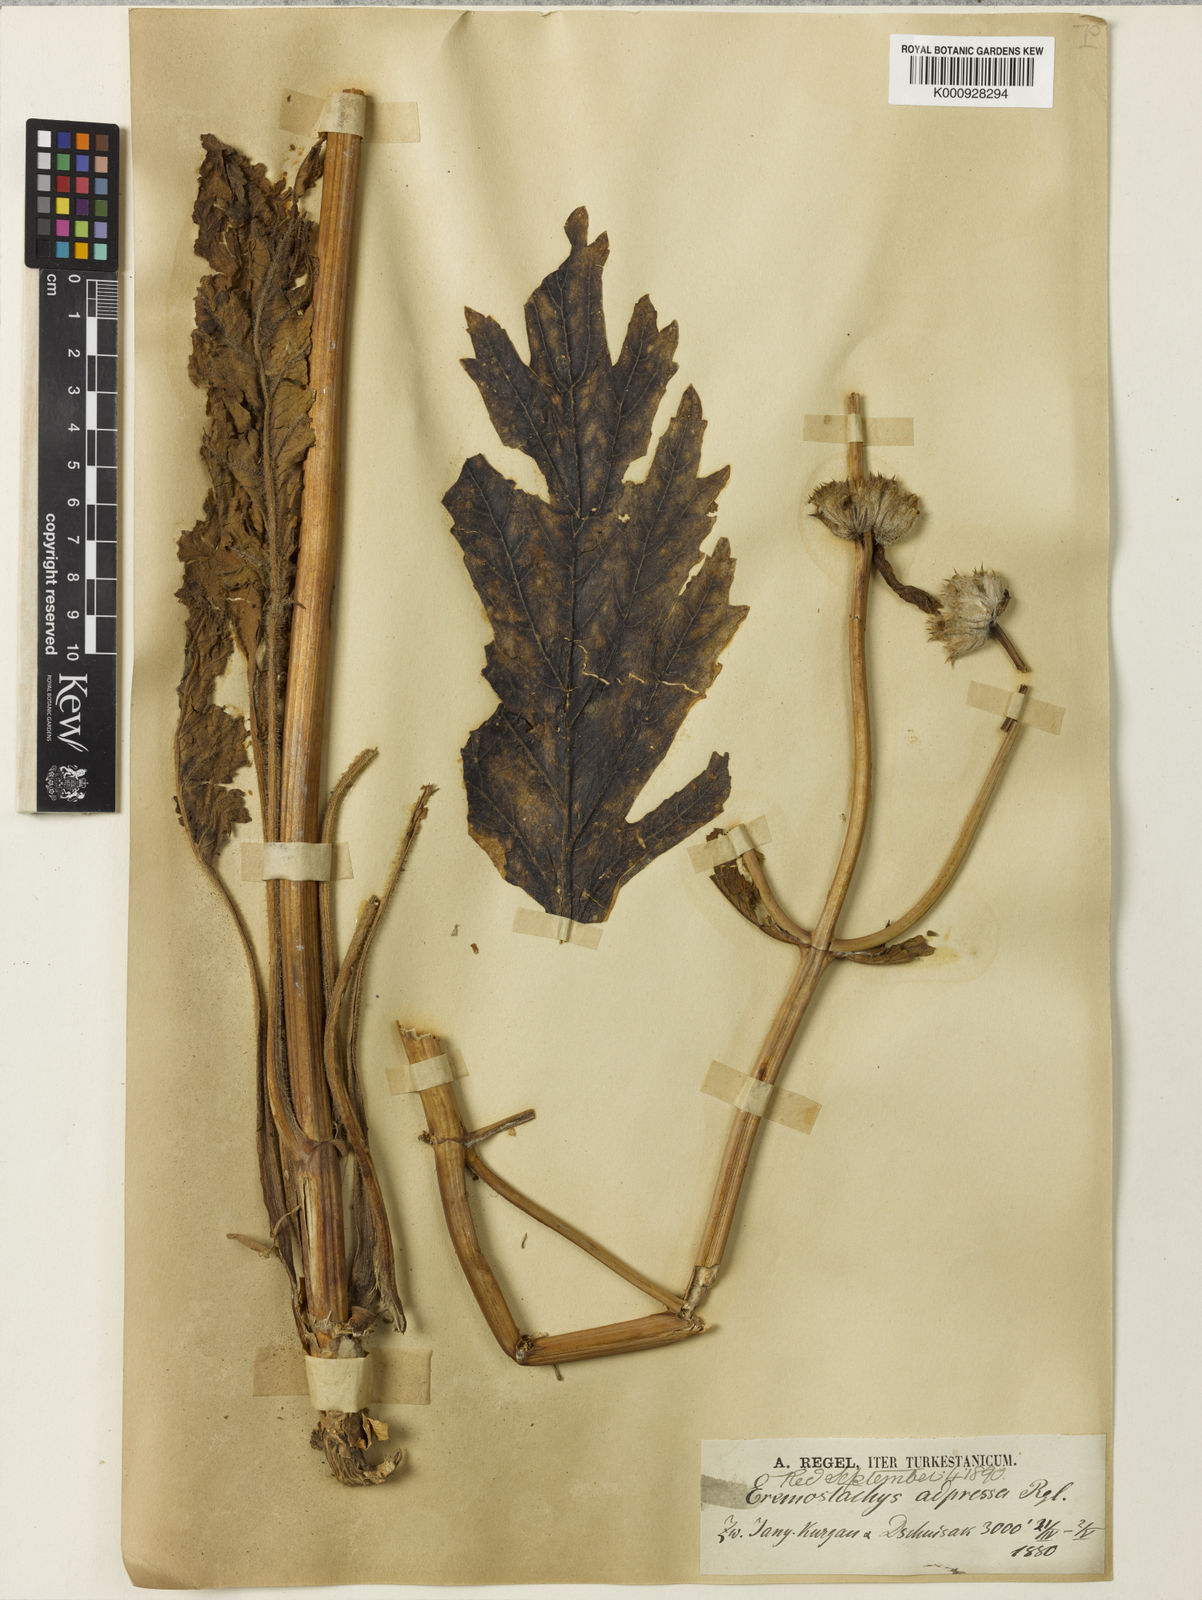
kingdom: Plantae
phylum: Tracheophyta
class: Magnoliopsida
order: Lamiales
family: Lamiaceae
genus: Phlomoides
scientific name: Phlomoides kaufmanniana
